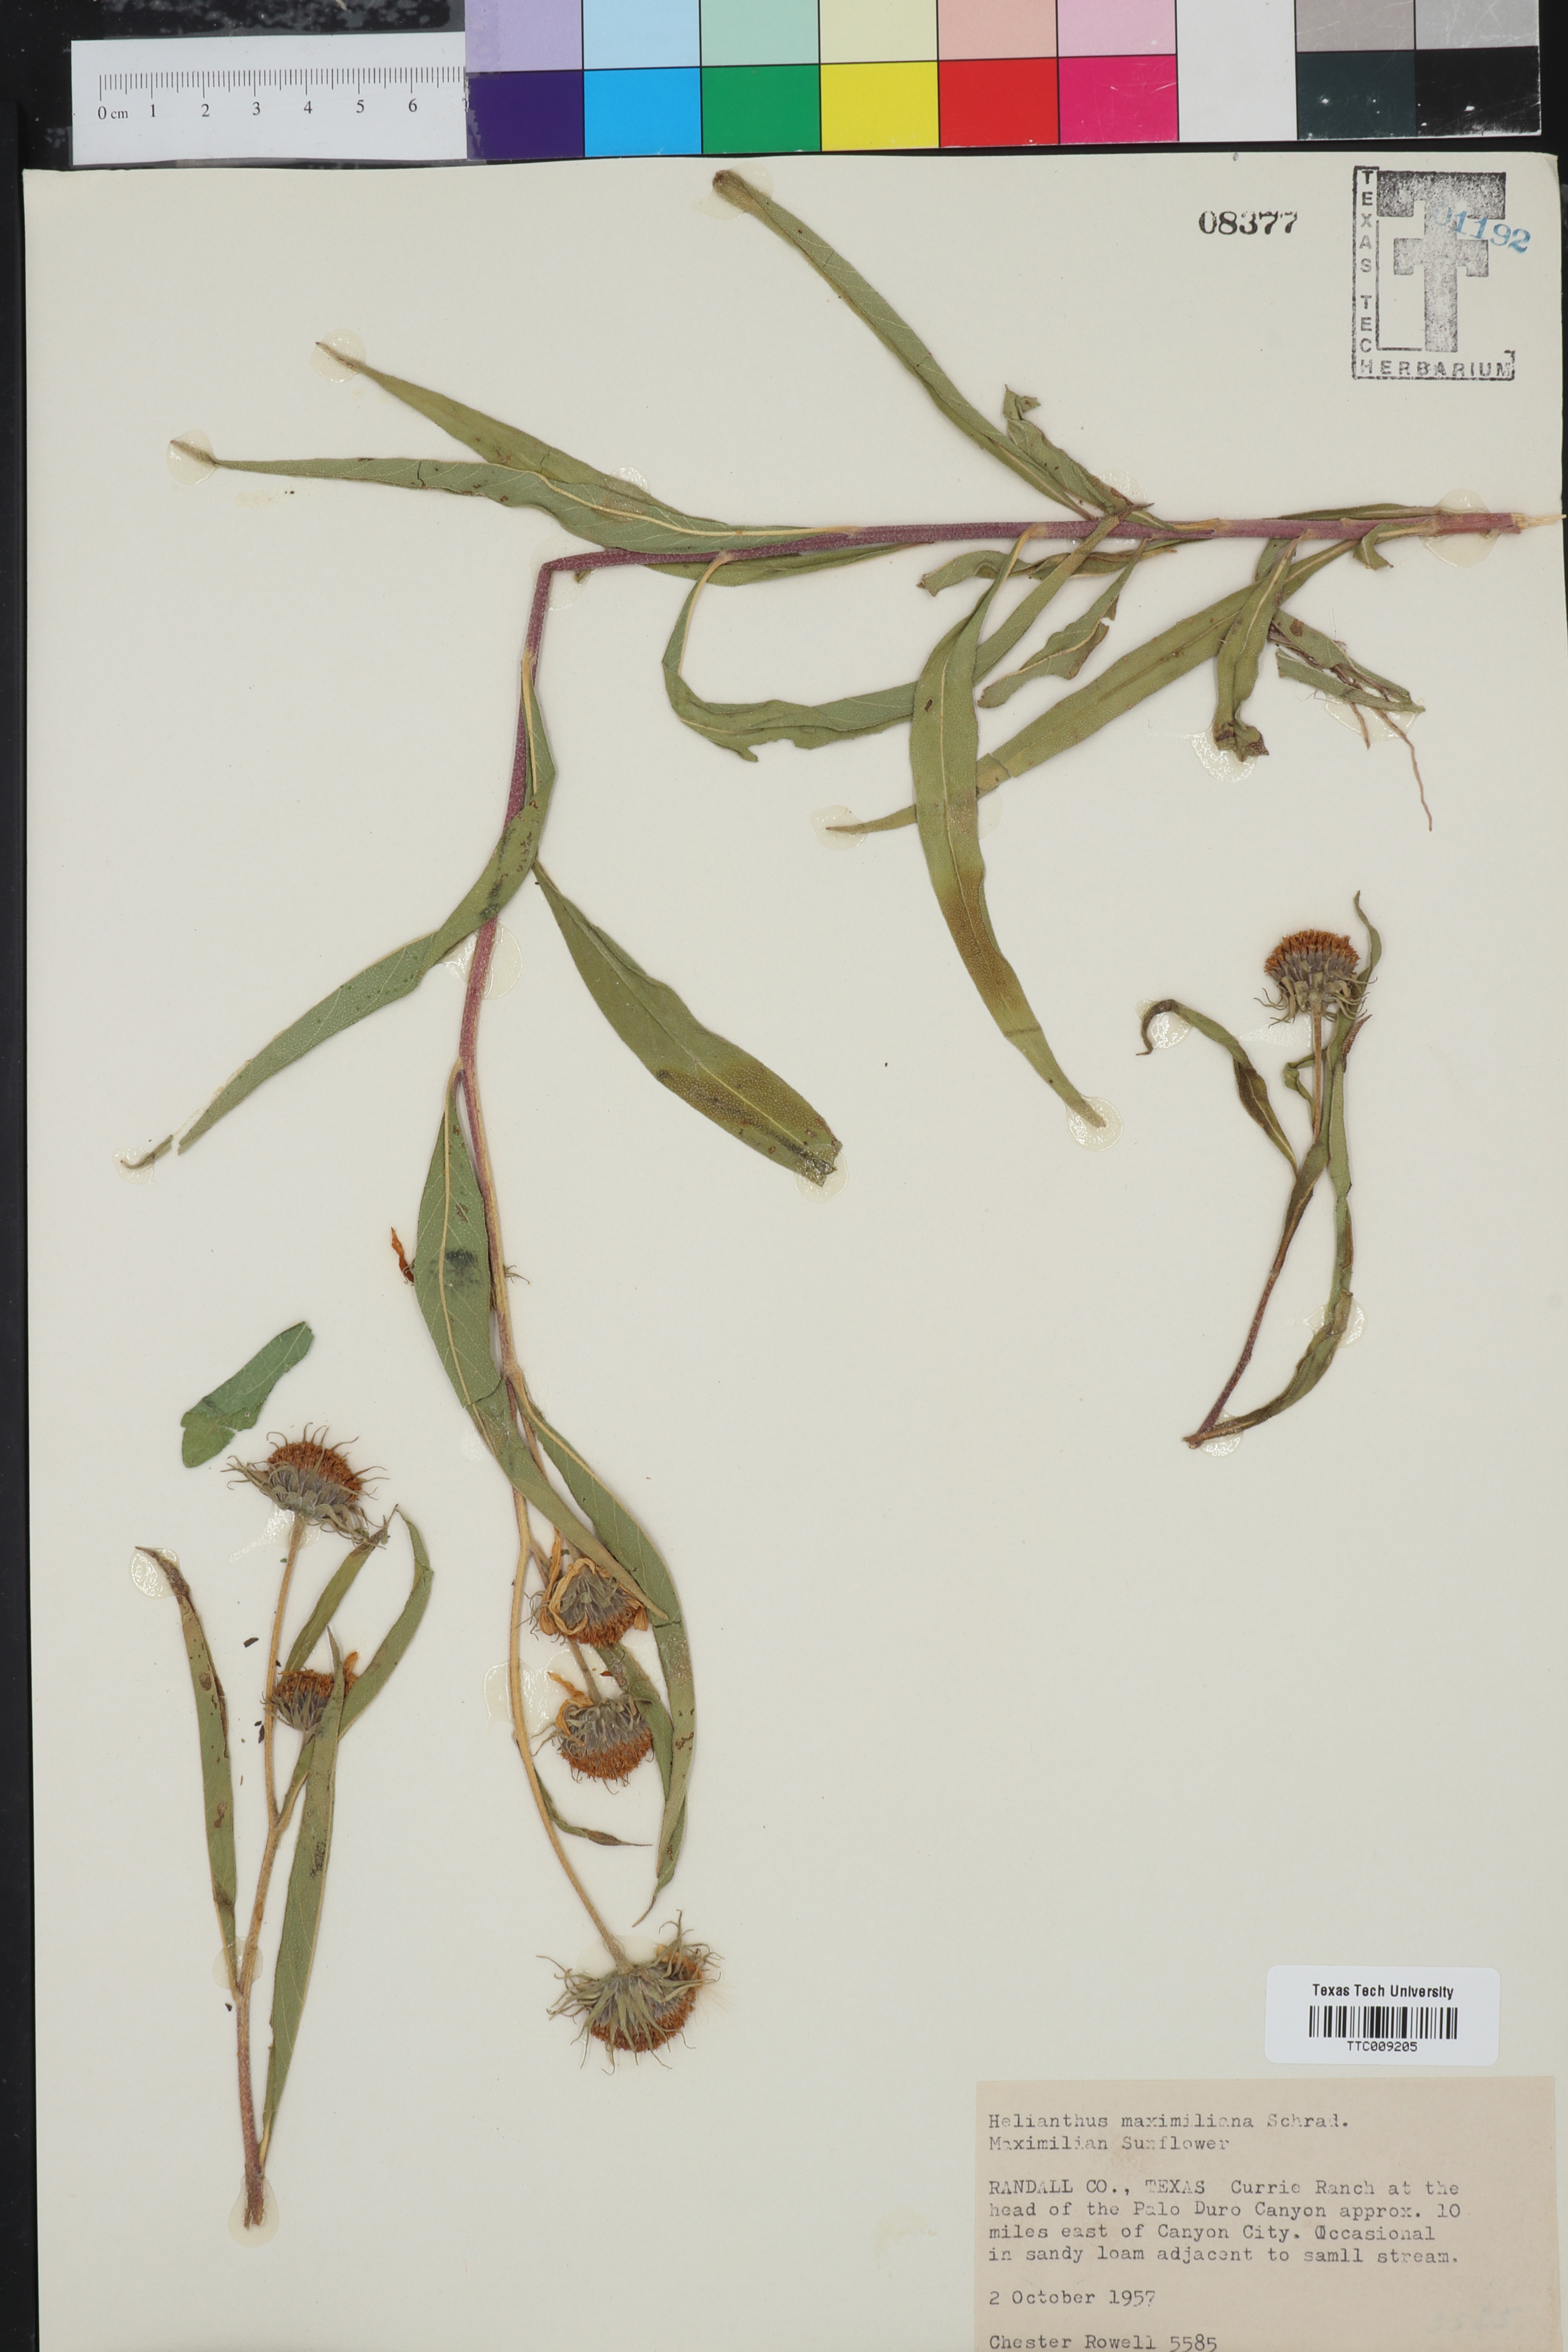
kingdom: Plantae
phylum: Tracheophyta
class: Magnoliopsida
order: Asterales
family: Asteraceae
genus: Helianthus
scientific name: Helianthus maximiliani
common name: Maximilian's sunflower
